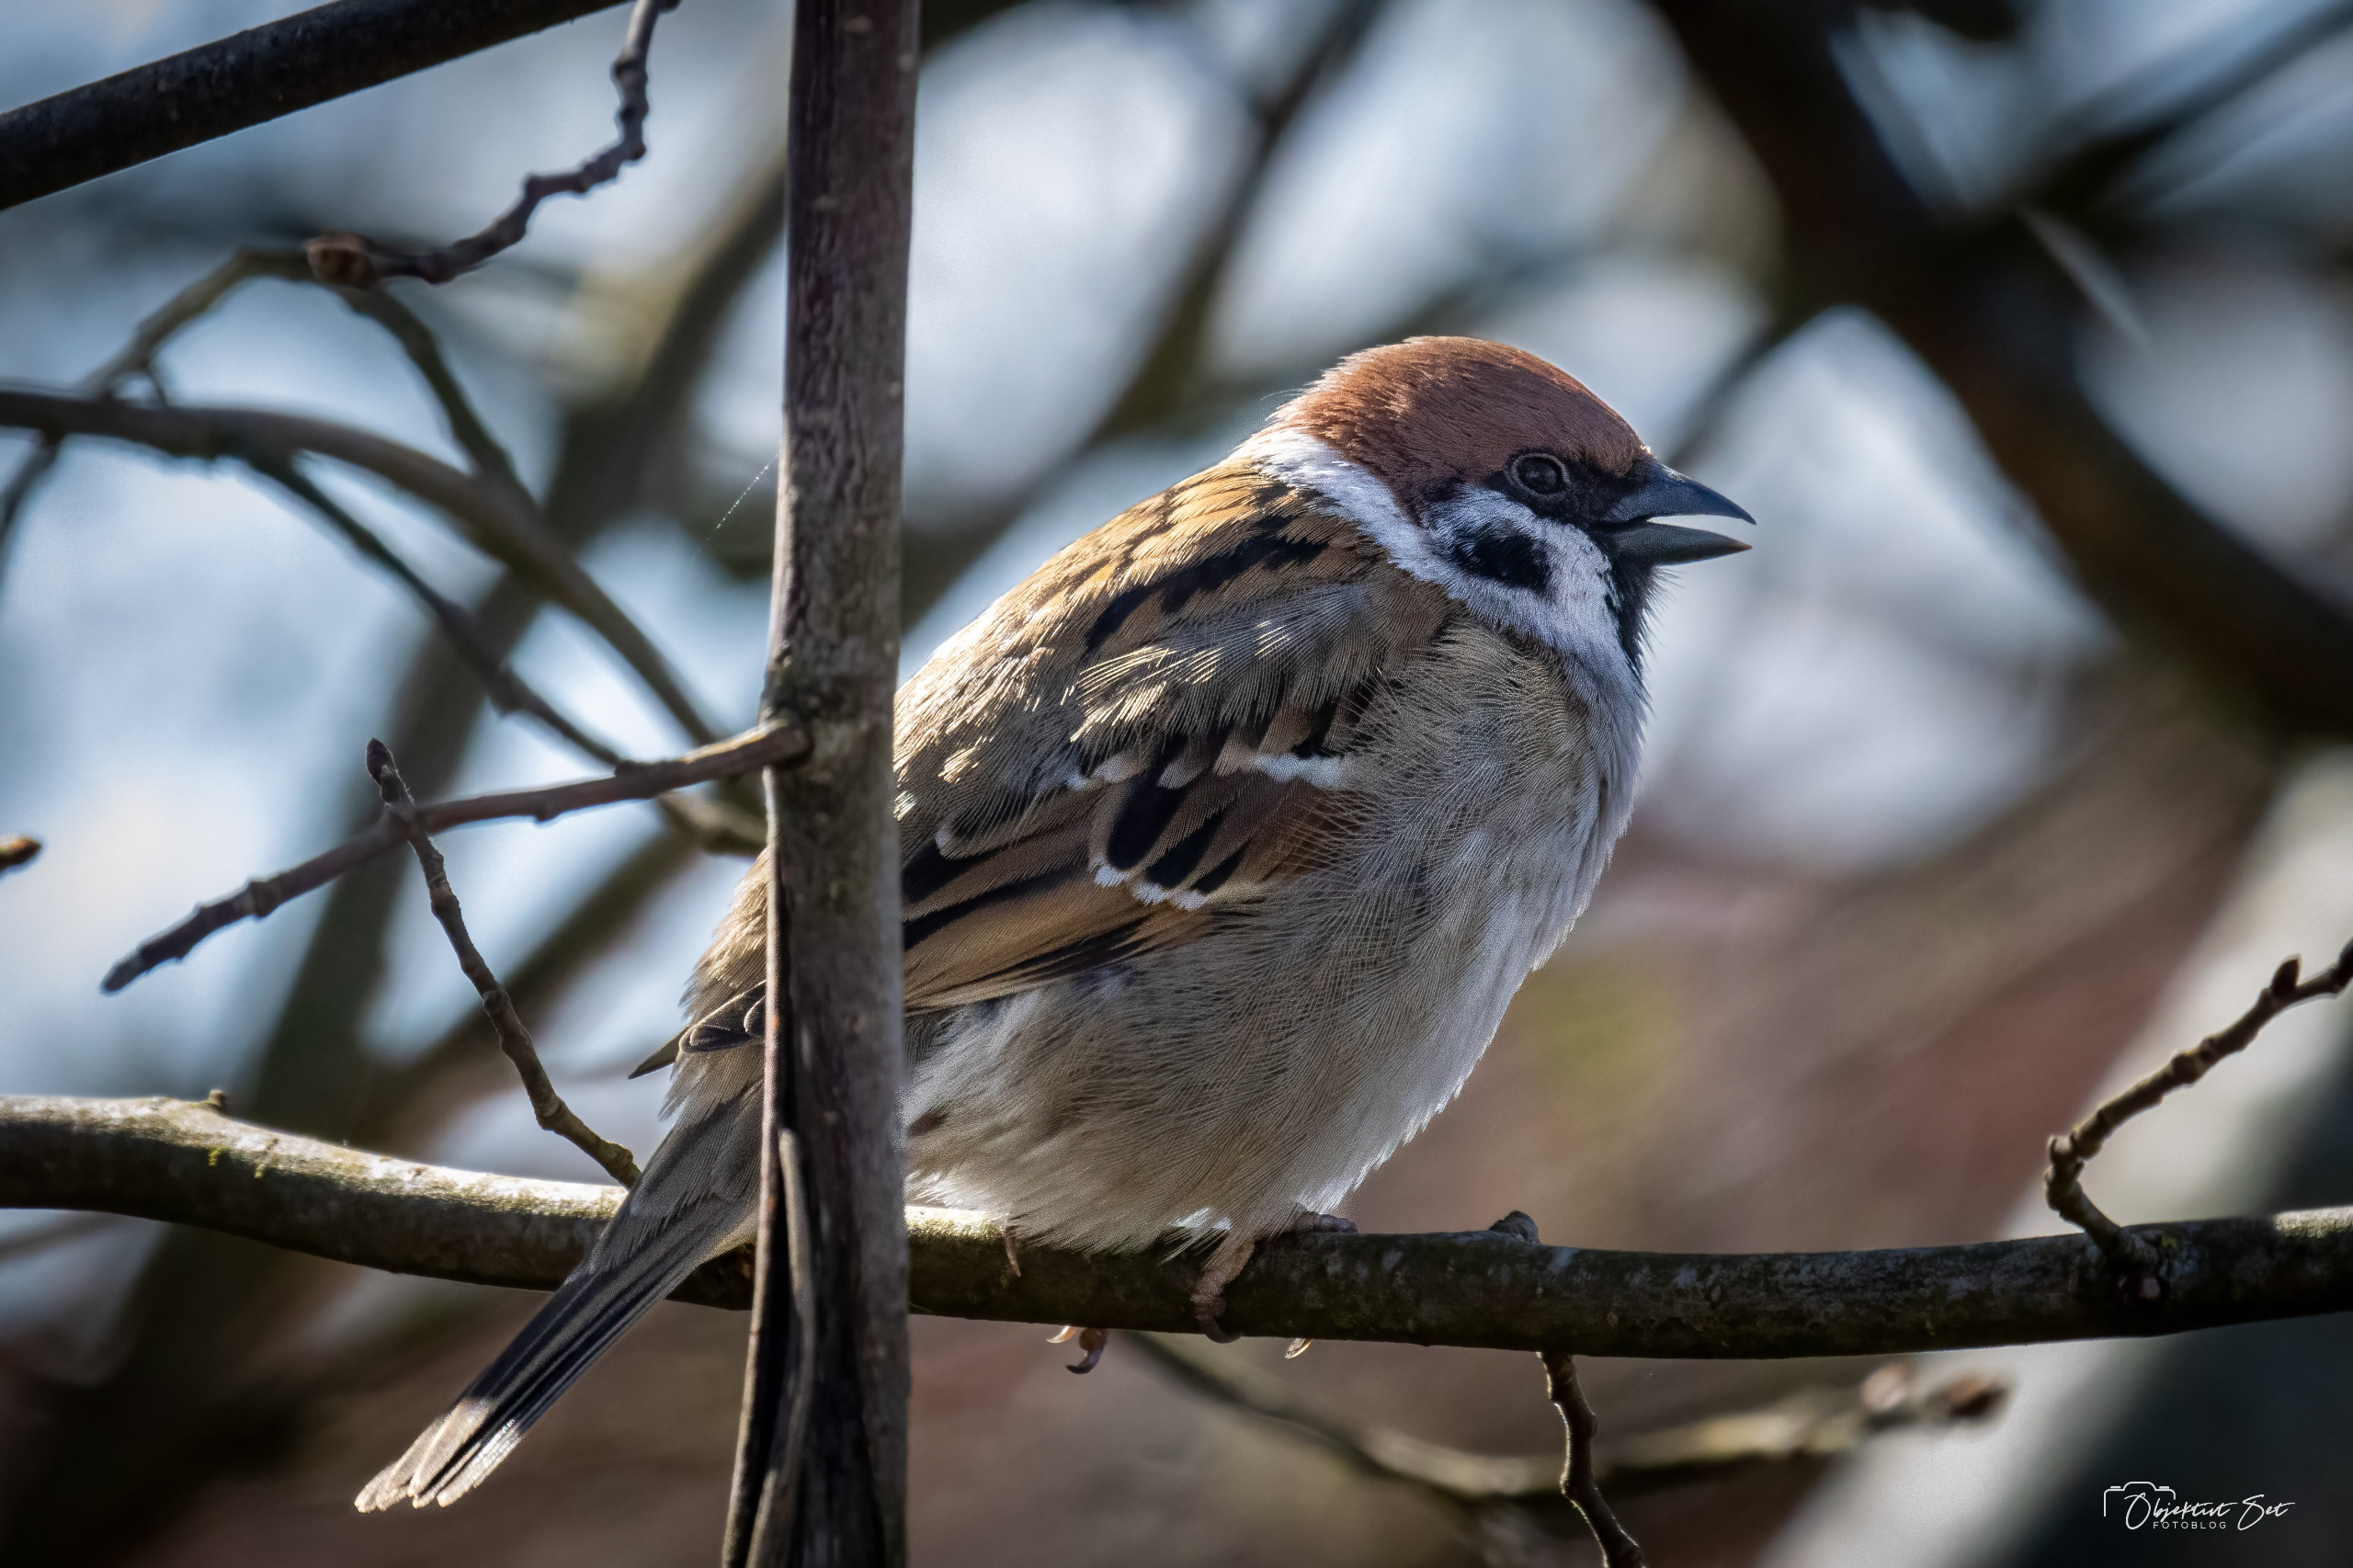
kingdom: Animalia
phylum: Chordata
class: Aves
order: Passeriformes
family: Passeridae
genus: Passer
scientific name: Passer montanus
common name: Skovspurv
